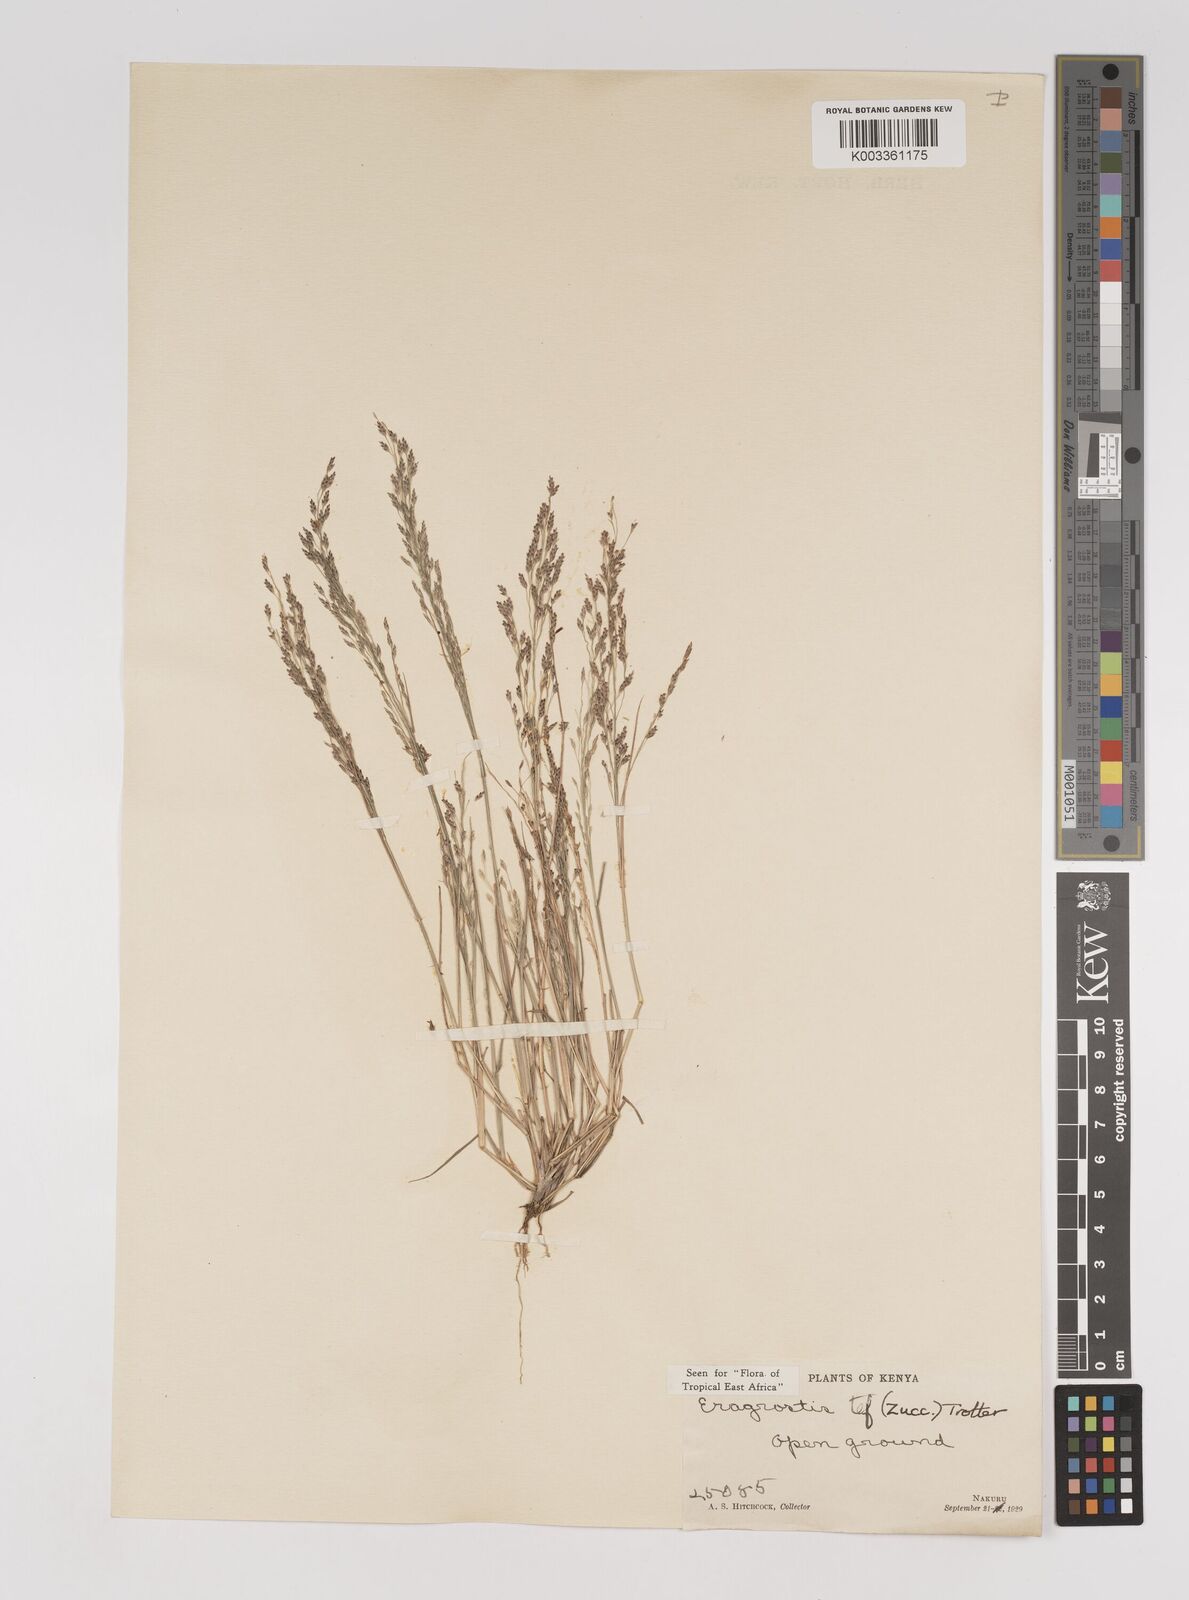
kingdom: Plantae
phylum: Tracheophyta
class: Liliopsida
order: Poales
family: Poaceae
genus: Eragrostis
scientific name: Eragrostis tef
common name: Teff
